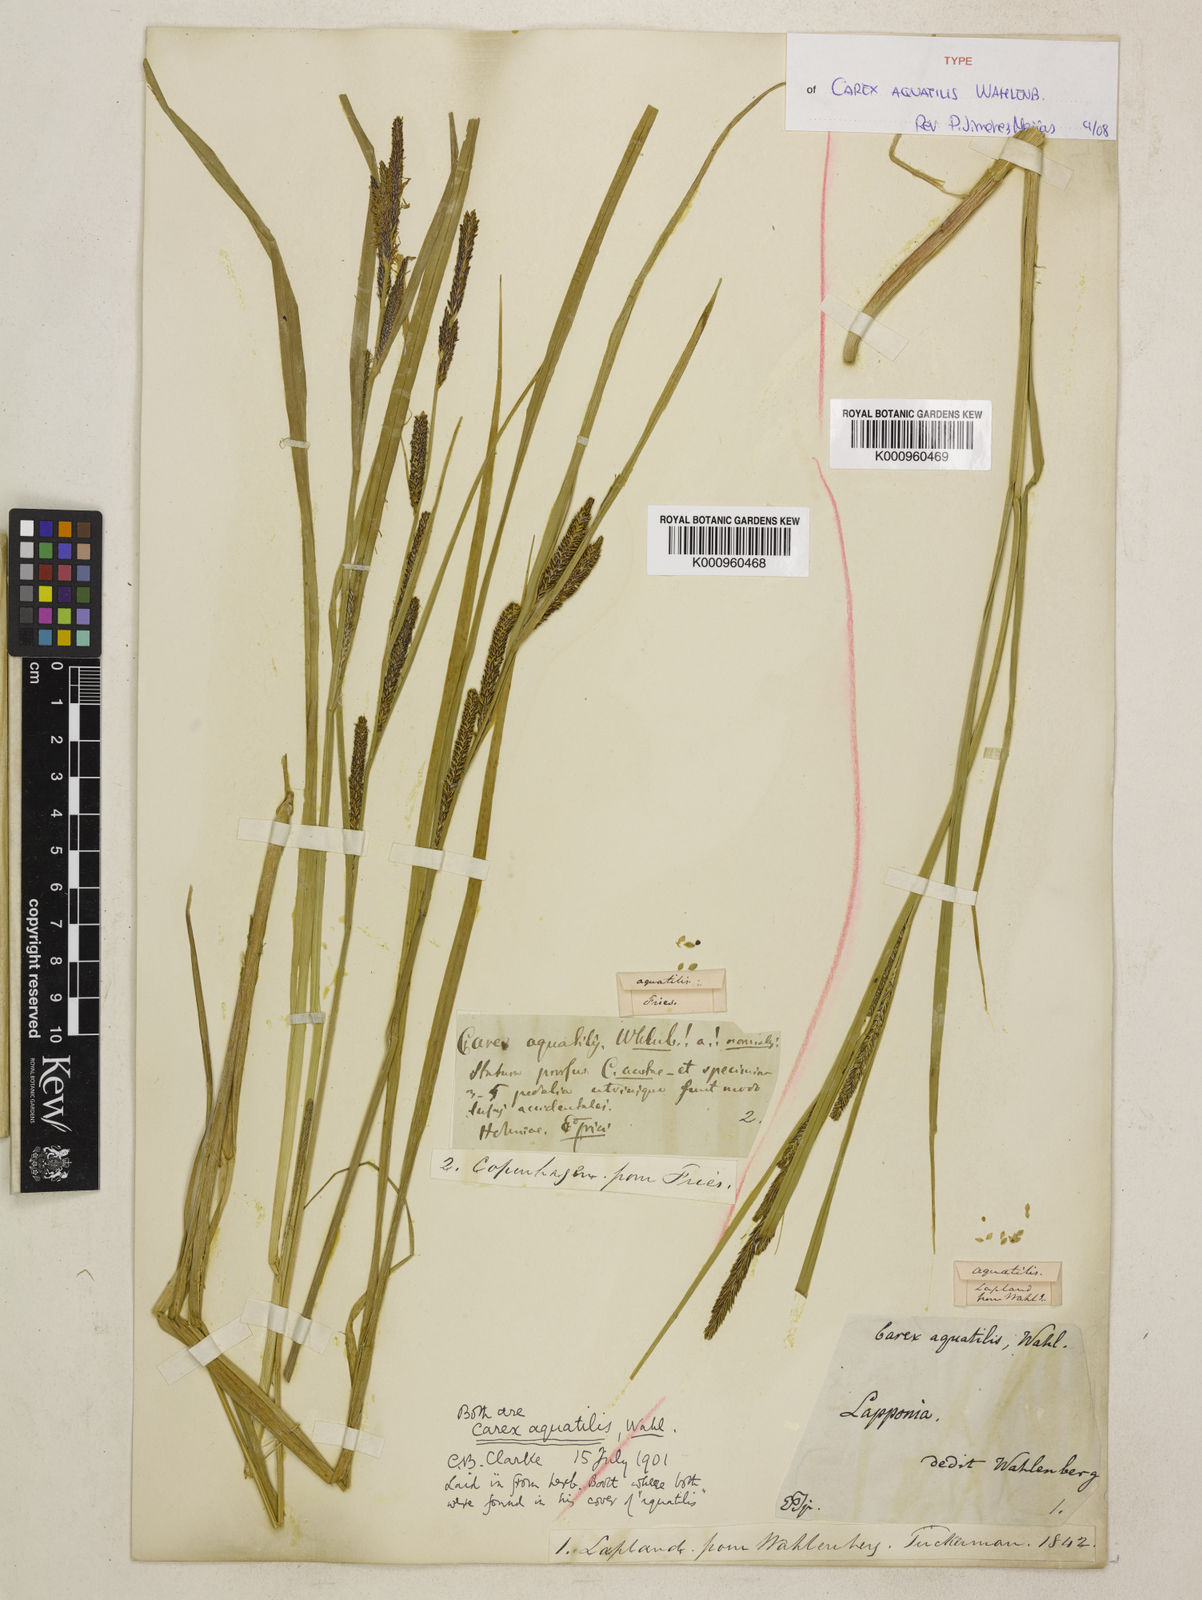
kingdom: Plantae
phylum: Tracheophyta
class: Liliopsida
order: Poales
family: Cyperaceae
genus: Carex
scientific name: Carex aquatilis
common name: Water sedge
